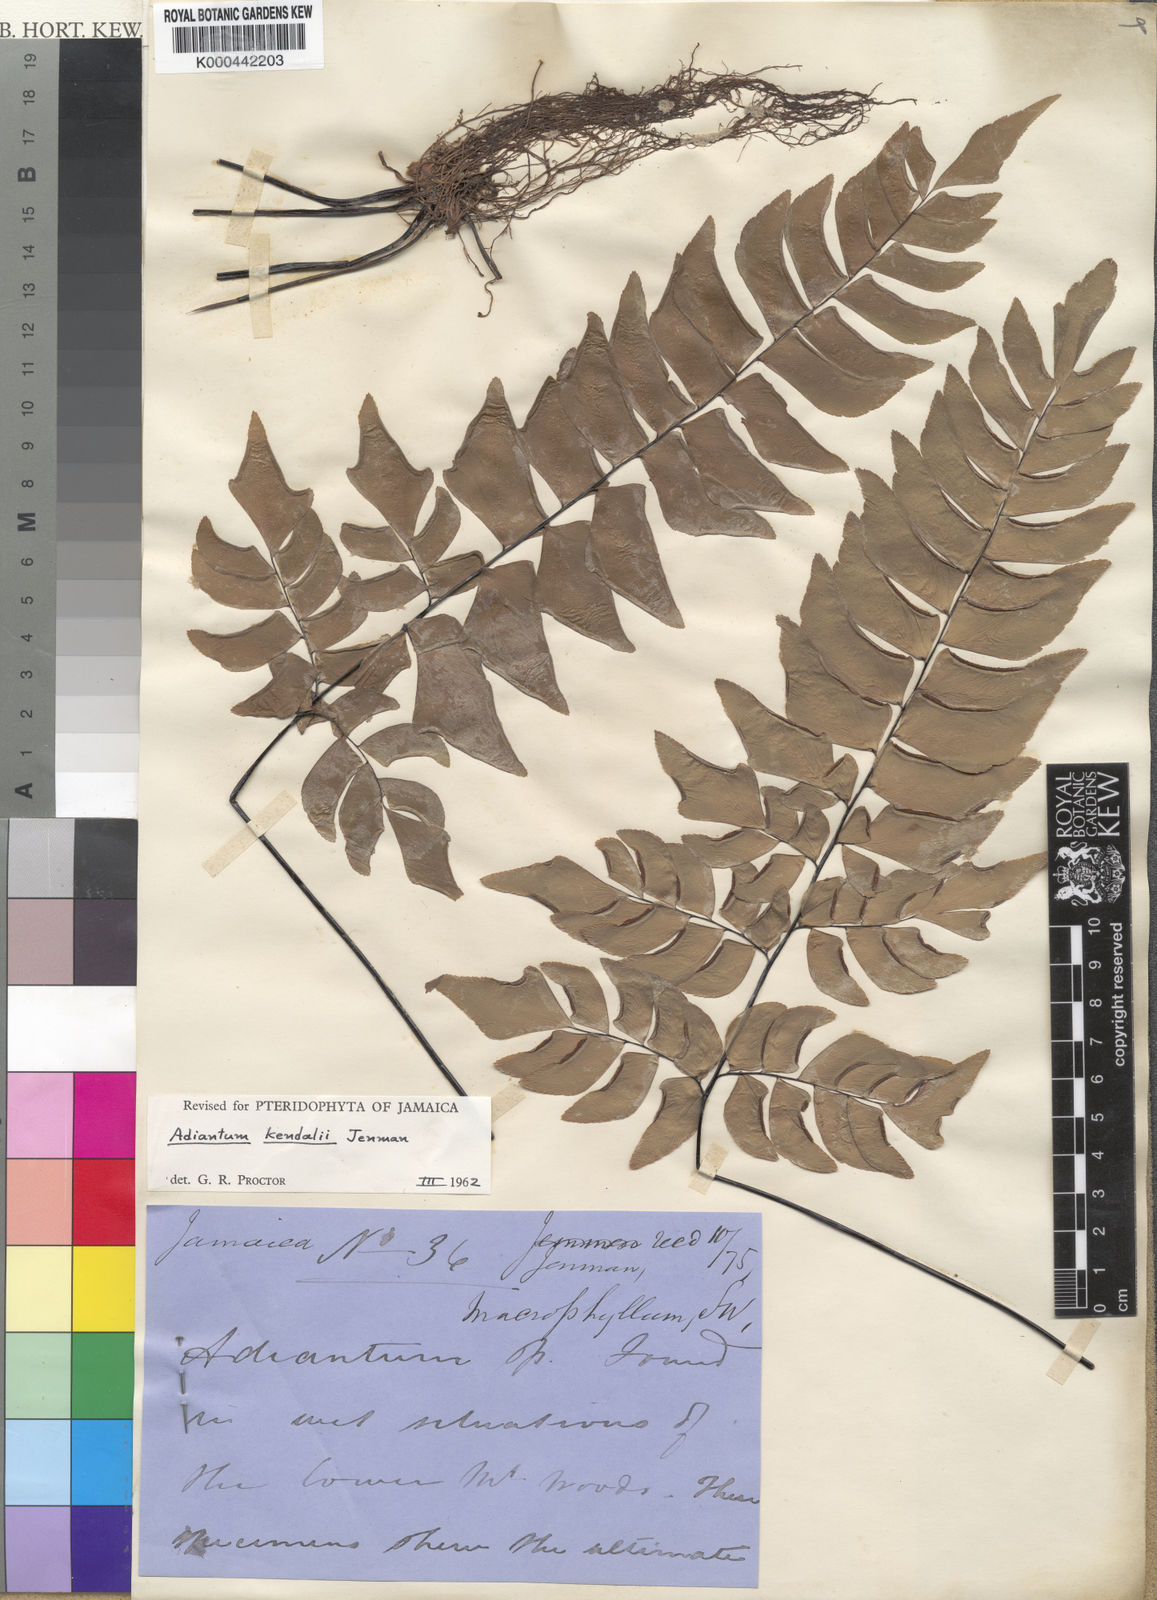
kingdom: Plantae
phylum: Tracheophyta
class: Polypodiopsida
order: Polypodiales
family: Pteridaceae
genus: Adiantum
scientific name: Adiantum kendalii
